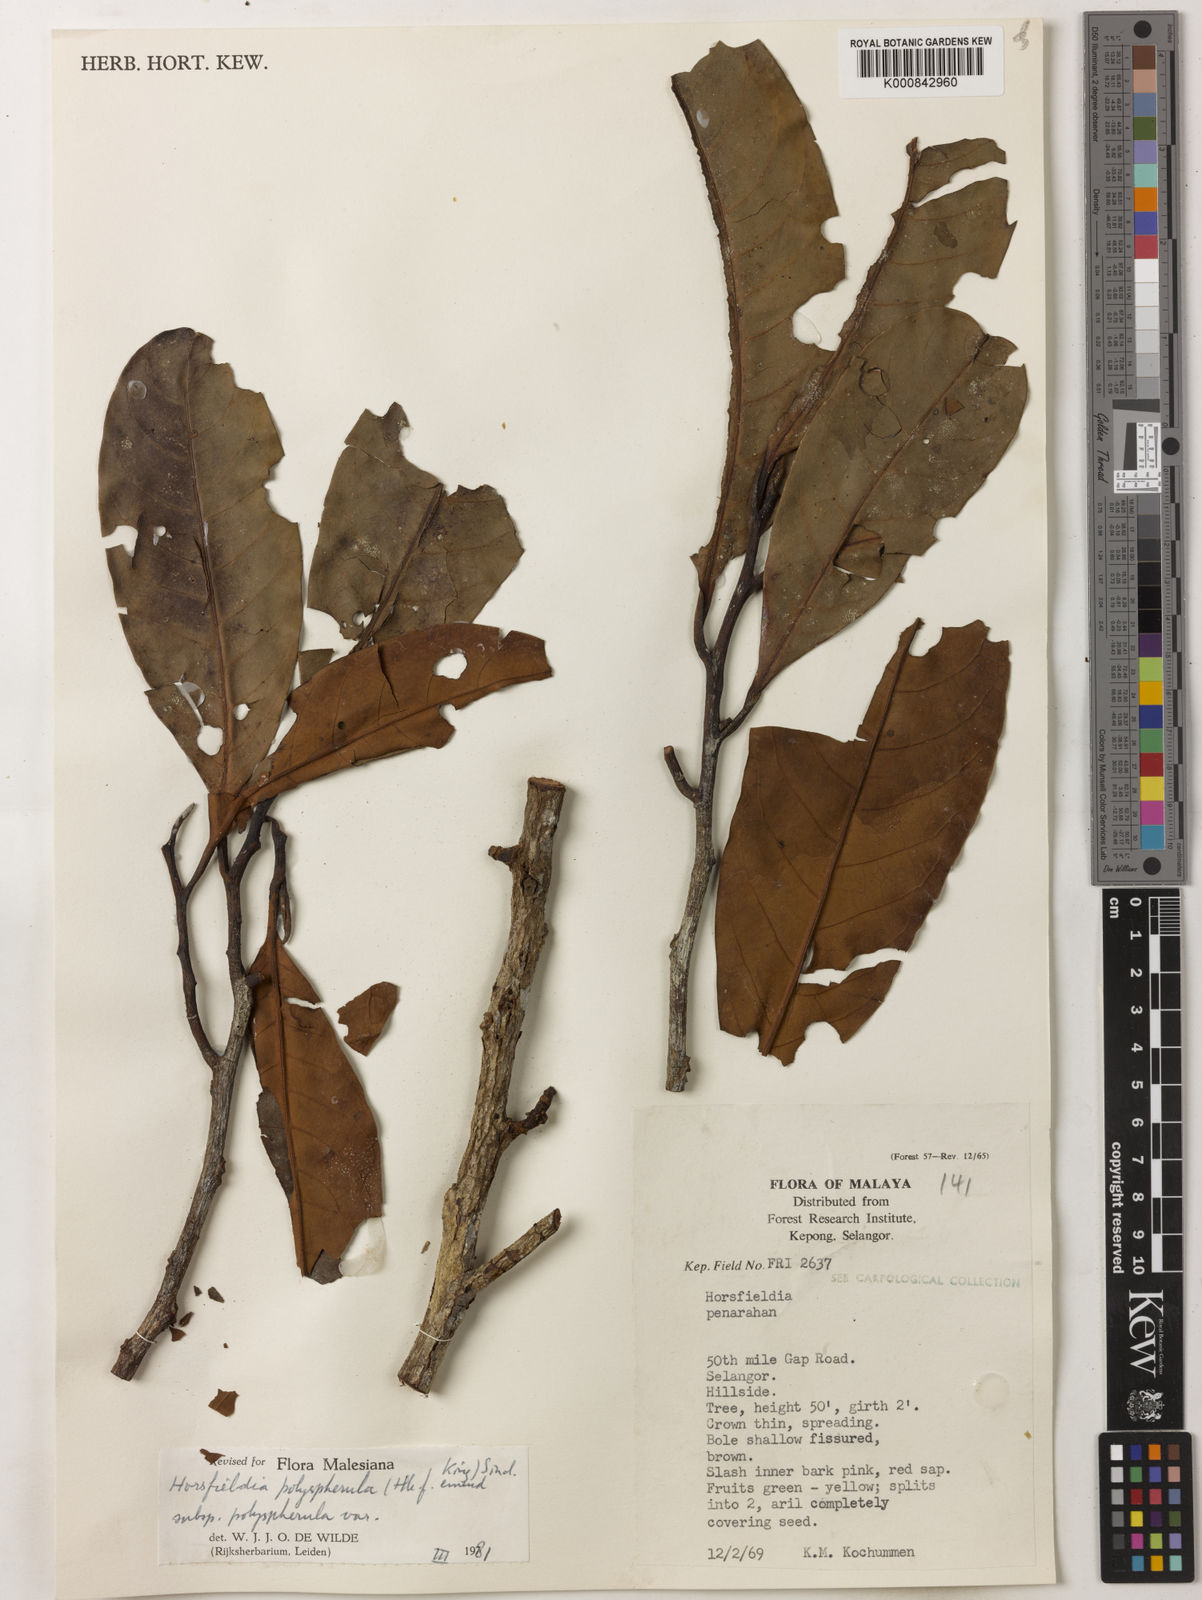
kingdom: Plantae
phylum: Tracheophyta
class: Magnoliopsida
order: Magnoliales
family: Myristicaceae
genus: Horsfieldia
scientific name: Horsfieldia
